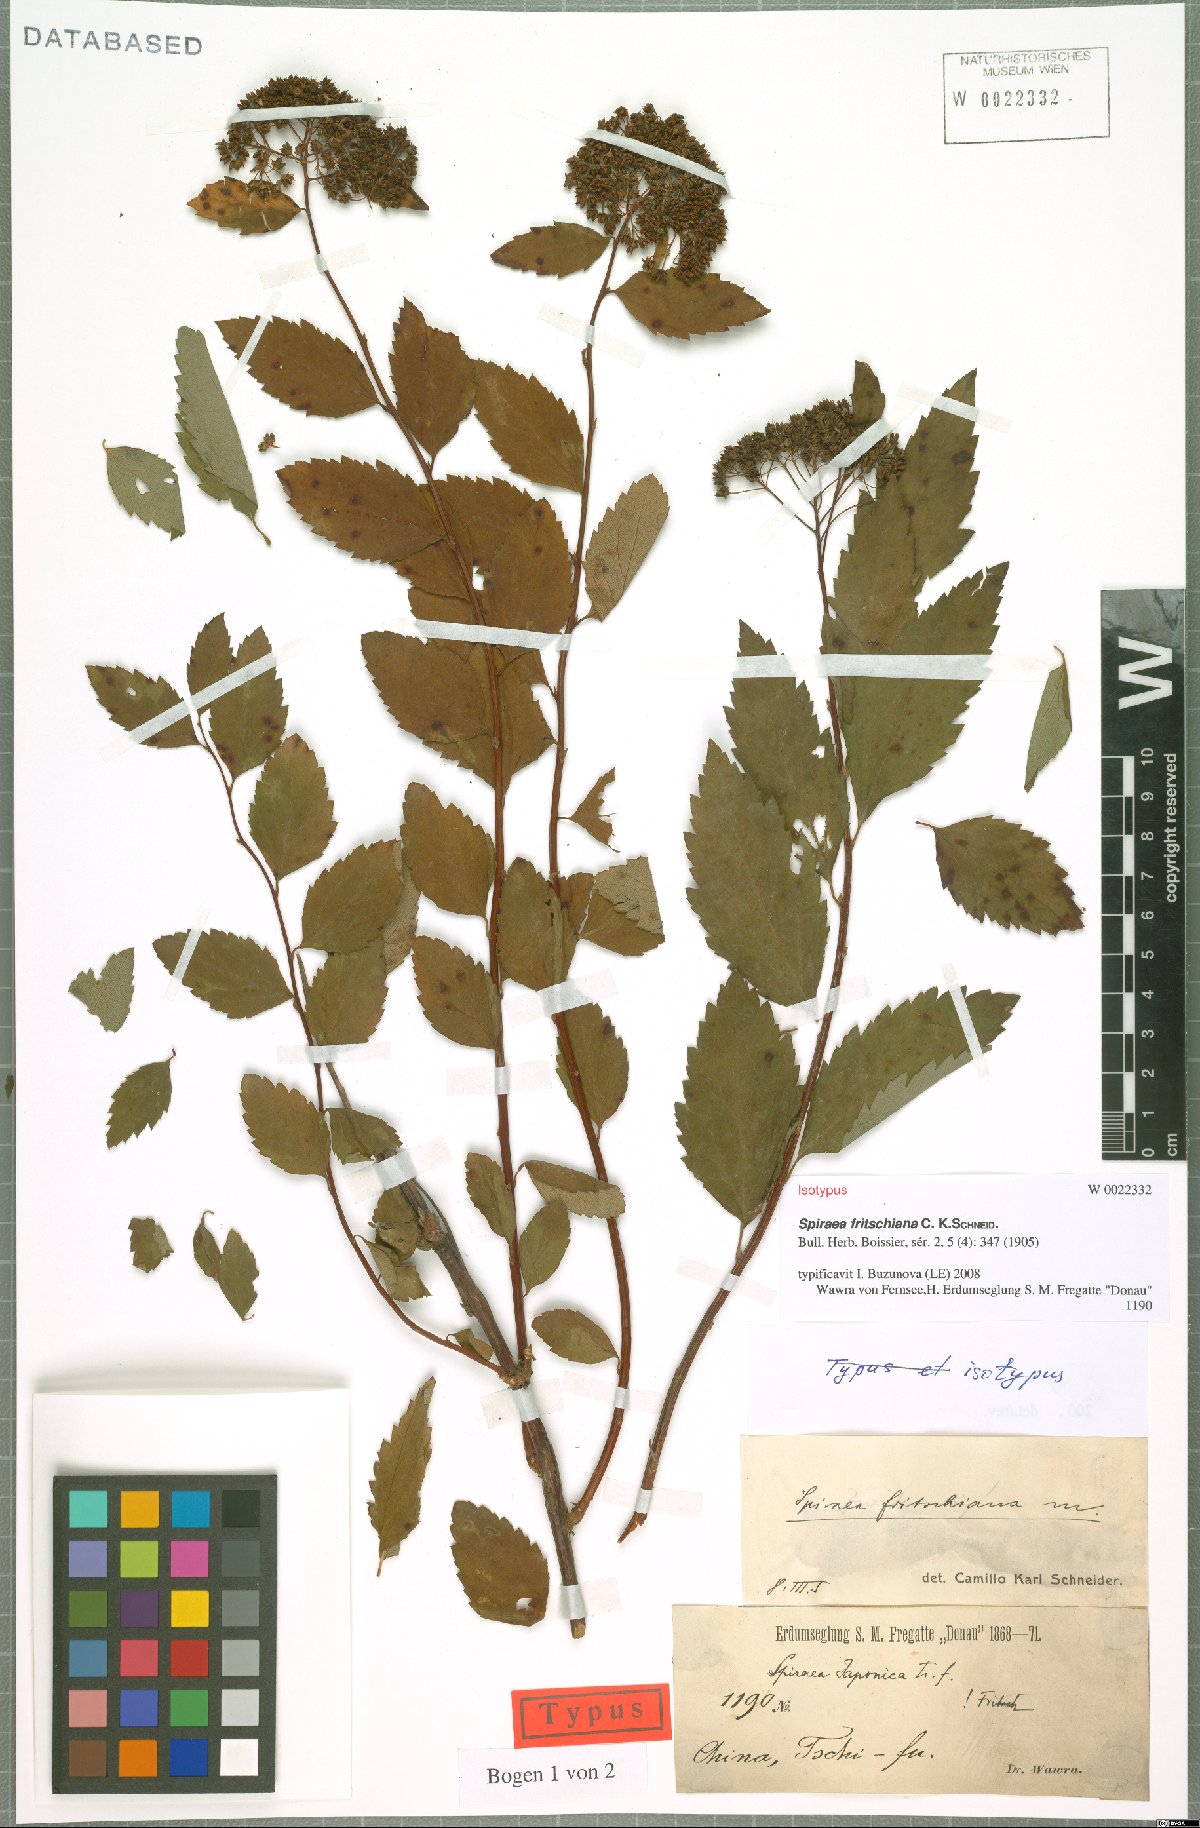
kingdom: Plantae
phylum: Tracheophyta
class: Magnoliopsida
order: Rosales
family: Rosaceae
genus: Spiraea
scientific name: Spiraea fritschiana
